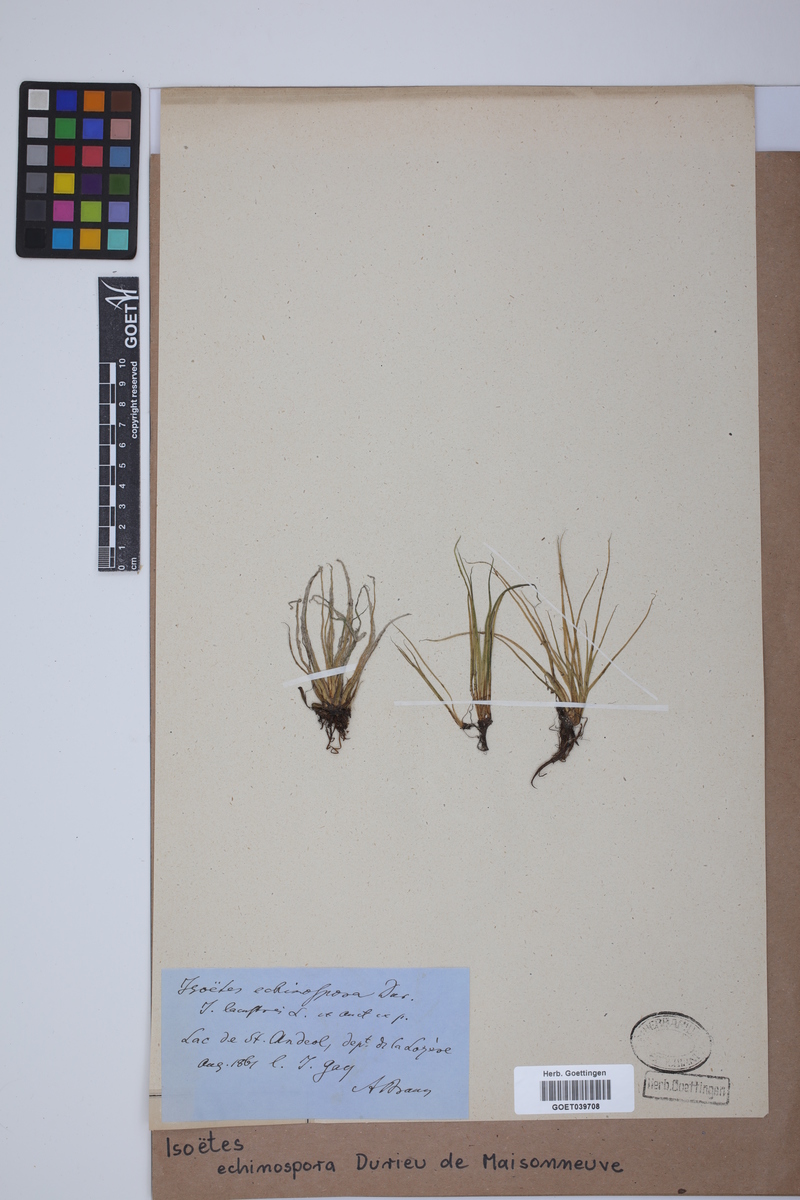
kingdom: Plantae
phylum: Tracheophyta
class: Lycopodiopsida
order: Isoetales
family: Isoetaceae
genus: Isoetes
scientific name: Isoetes echinospora
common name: Spring quillwort
